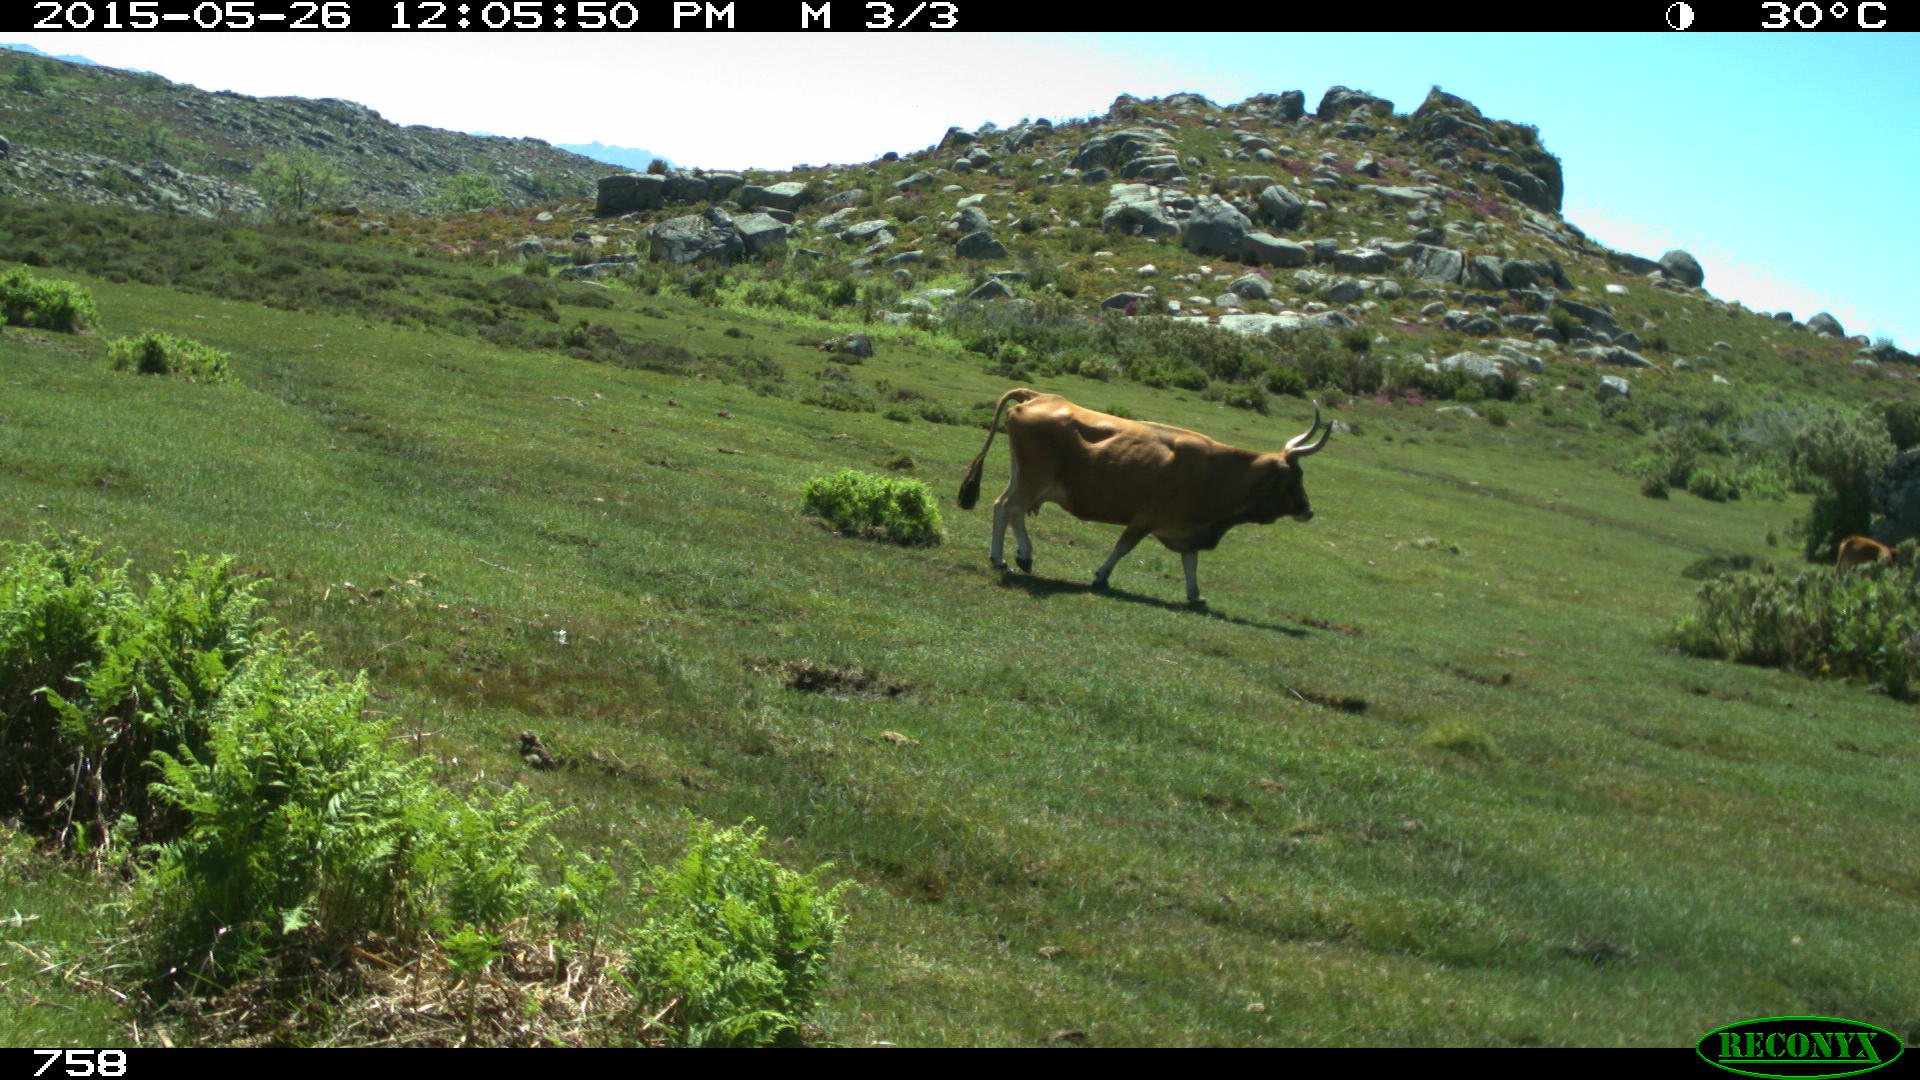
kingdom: Animalia
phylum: Chordata
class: Mammalia
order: Artiodactyla
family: Bovidae
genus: Bos
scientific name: Bos taurus
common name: Domesticated cattle
